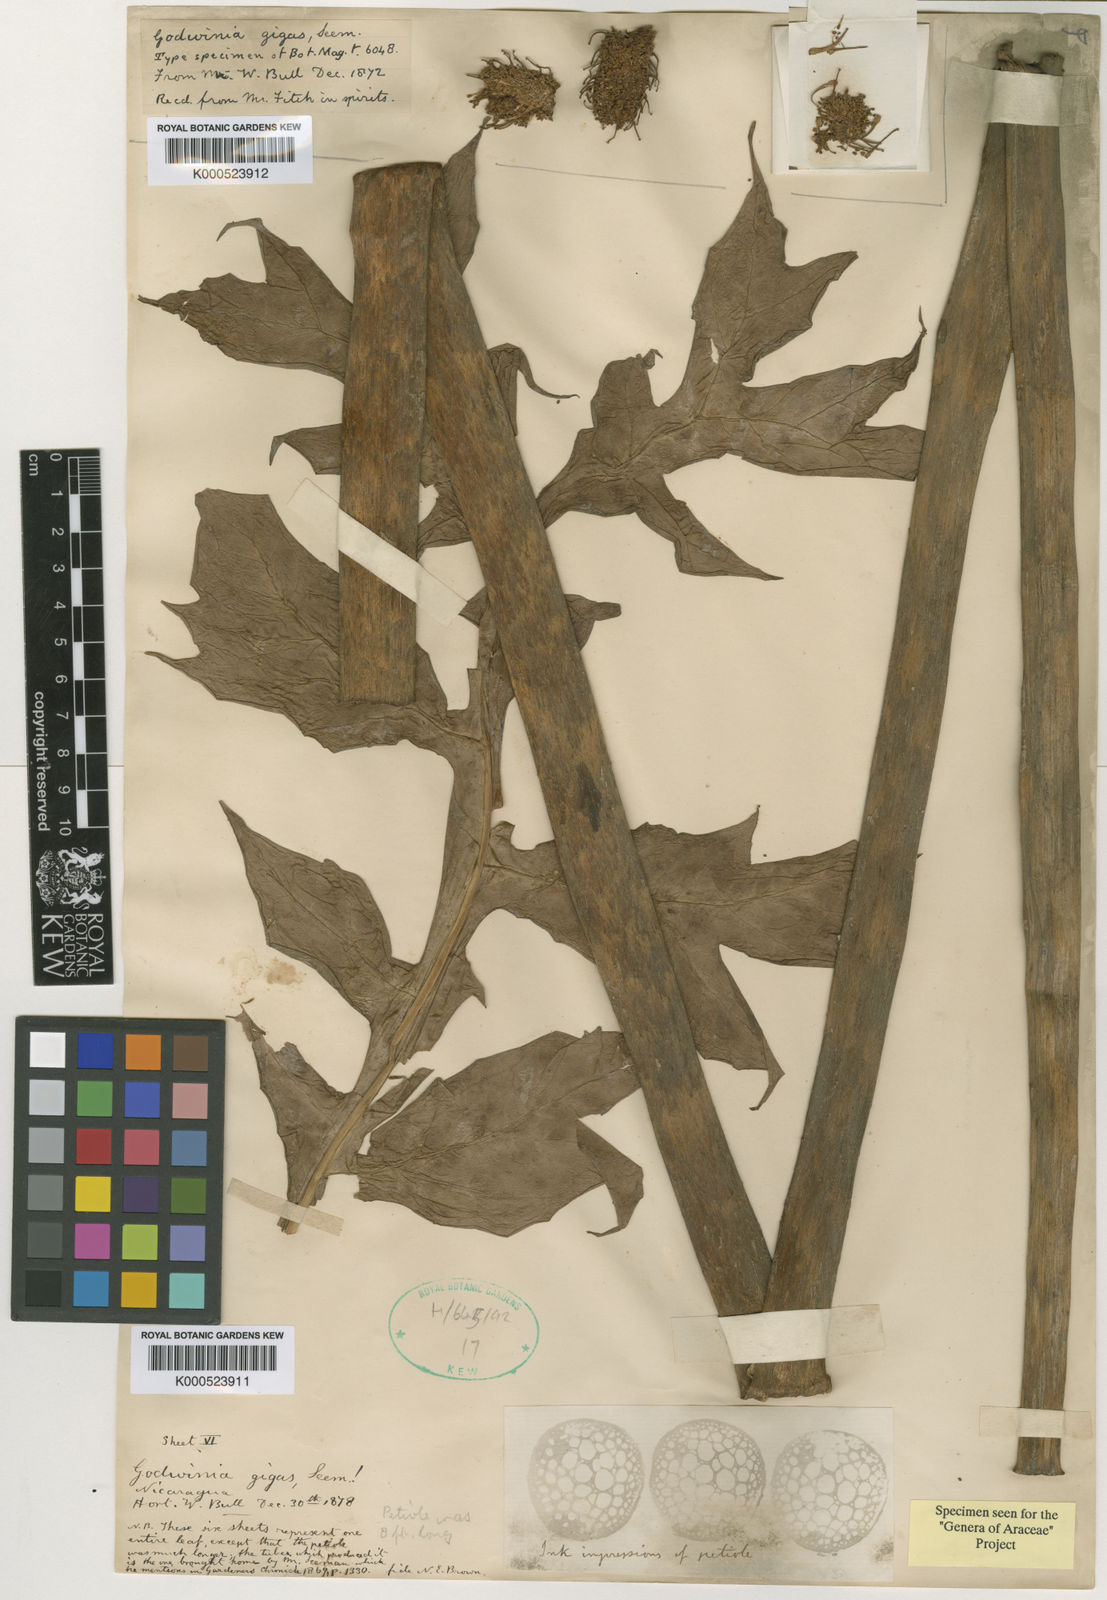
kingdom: Plantae
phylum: Tracheophyta
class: Liliopsida
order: Alismatales
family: Araceae
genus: Dracontium
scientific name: Dracontium gigas
